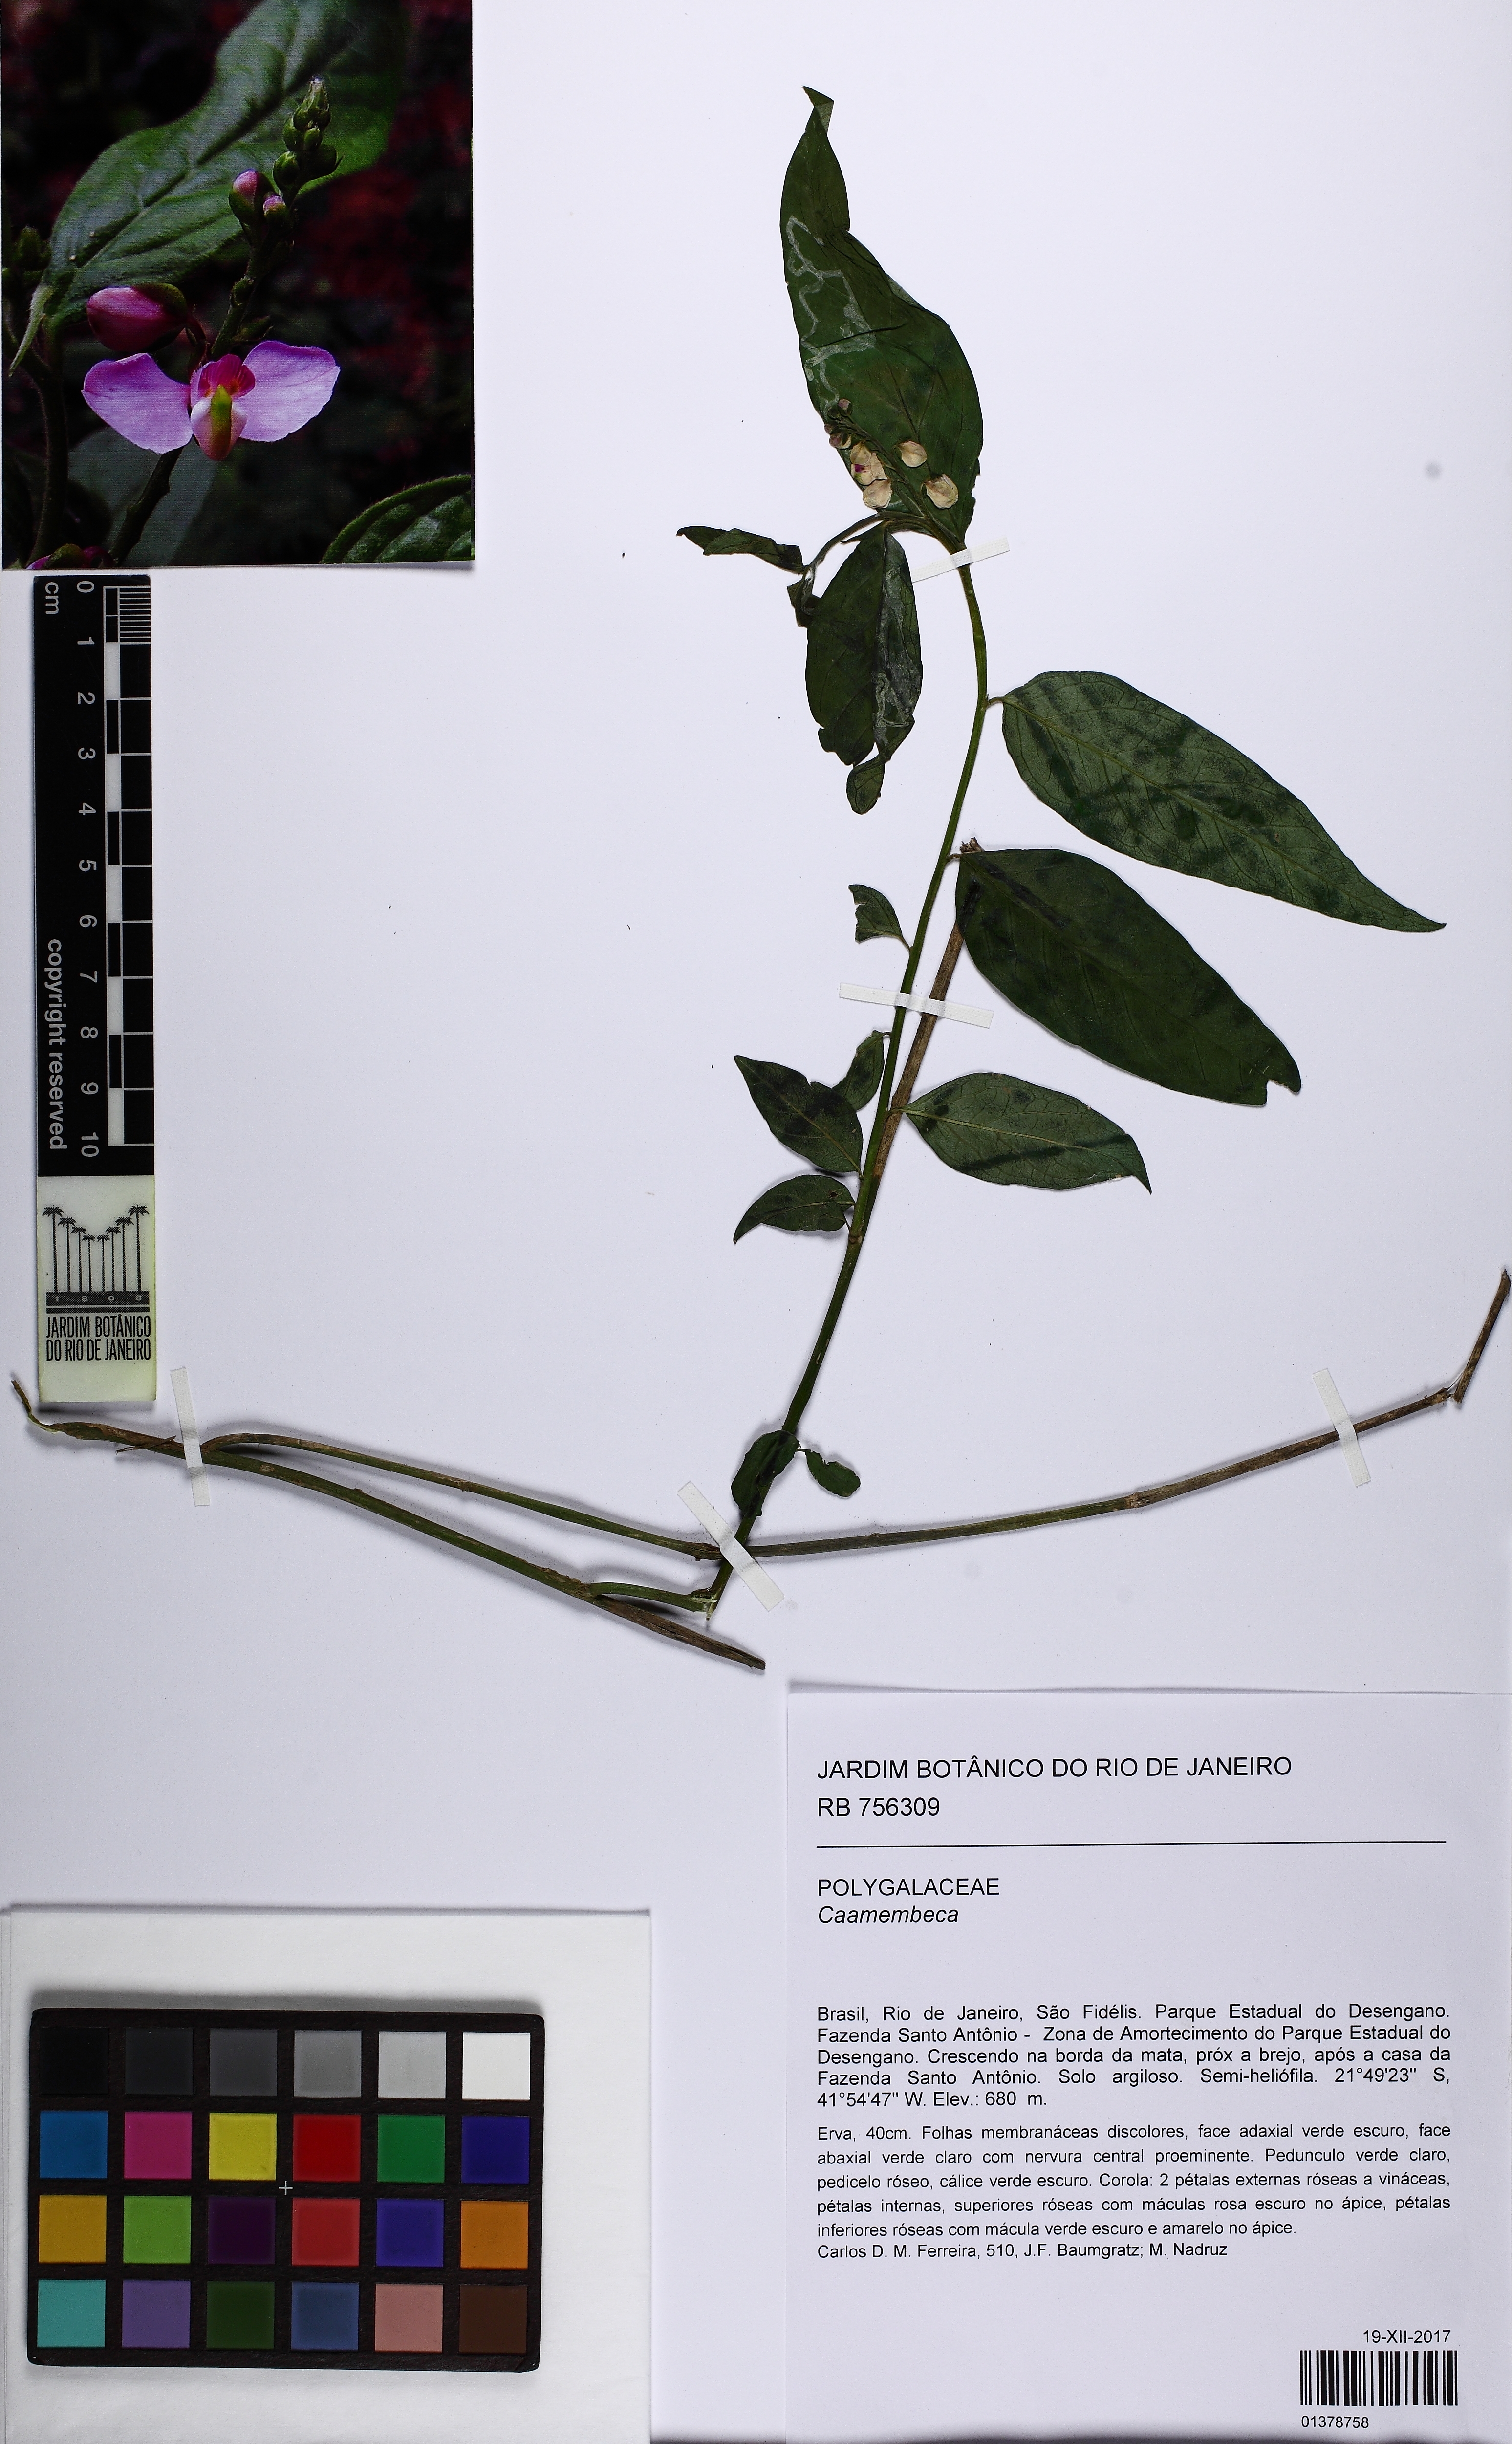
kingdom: Plantae
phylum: Tracheophyta
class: Magnoliopsida
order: Fabales
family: Polygalaceae
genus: Caamembeca
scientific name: Caamembeca
